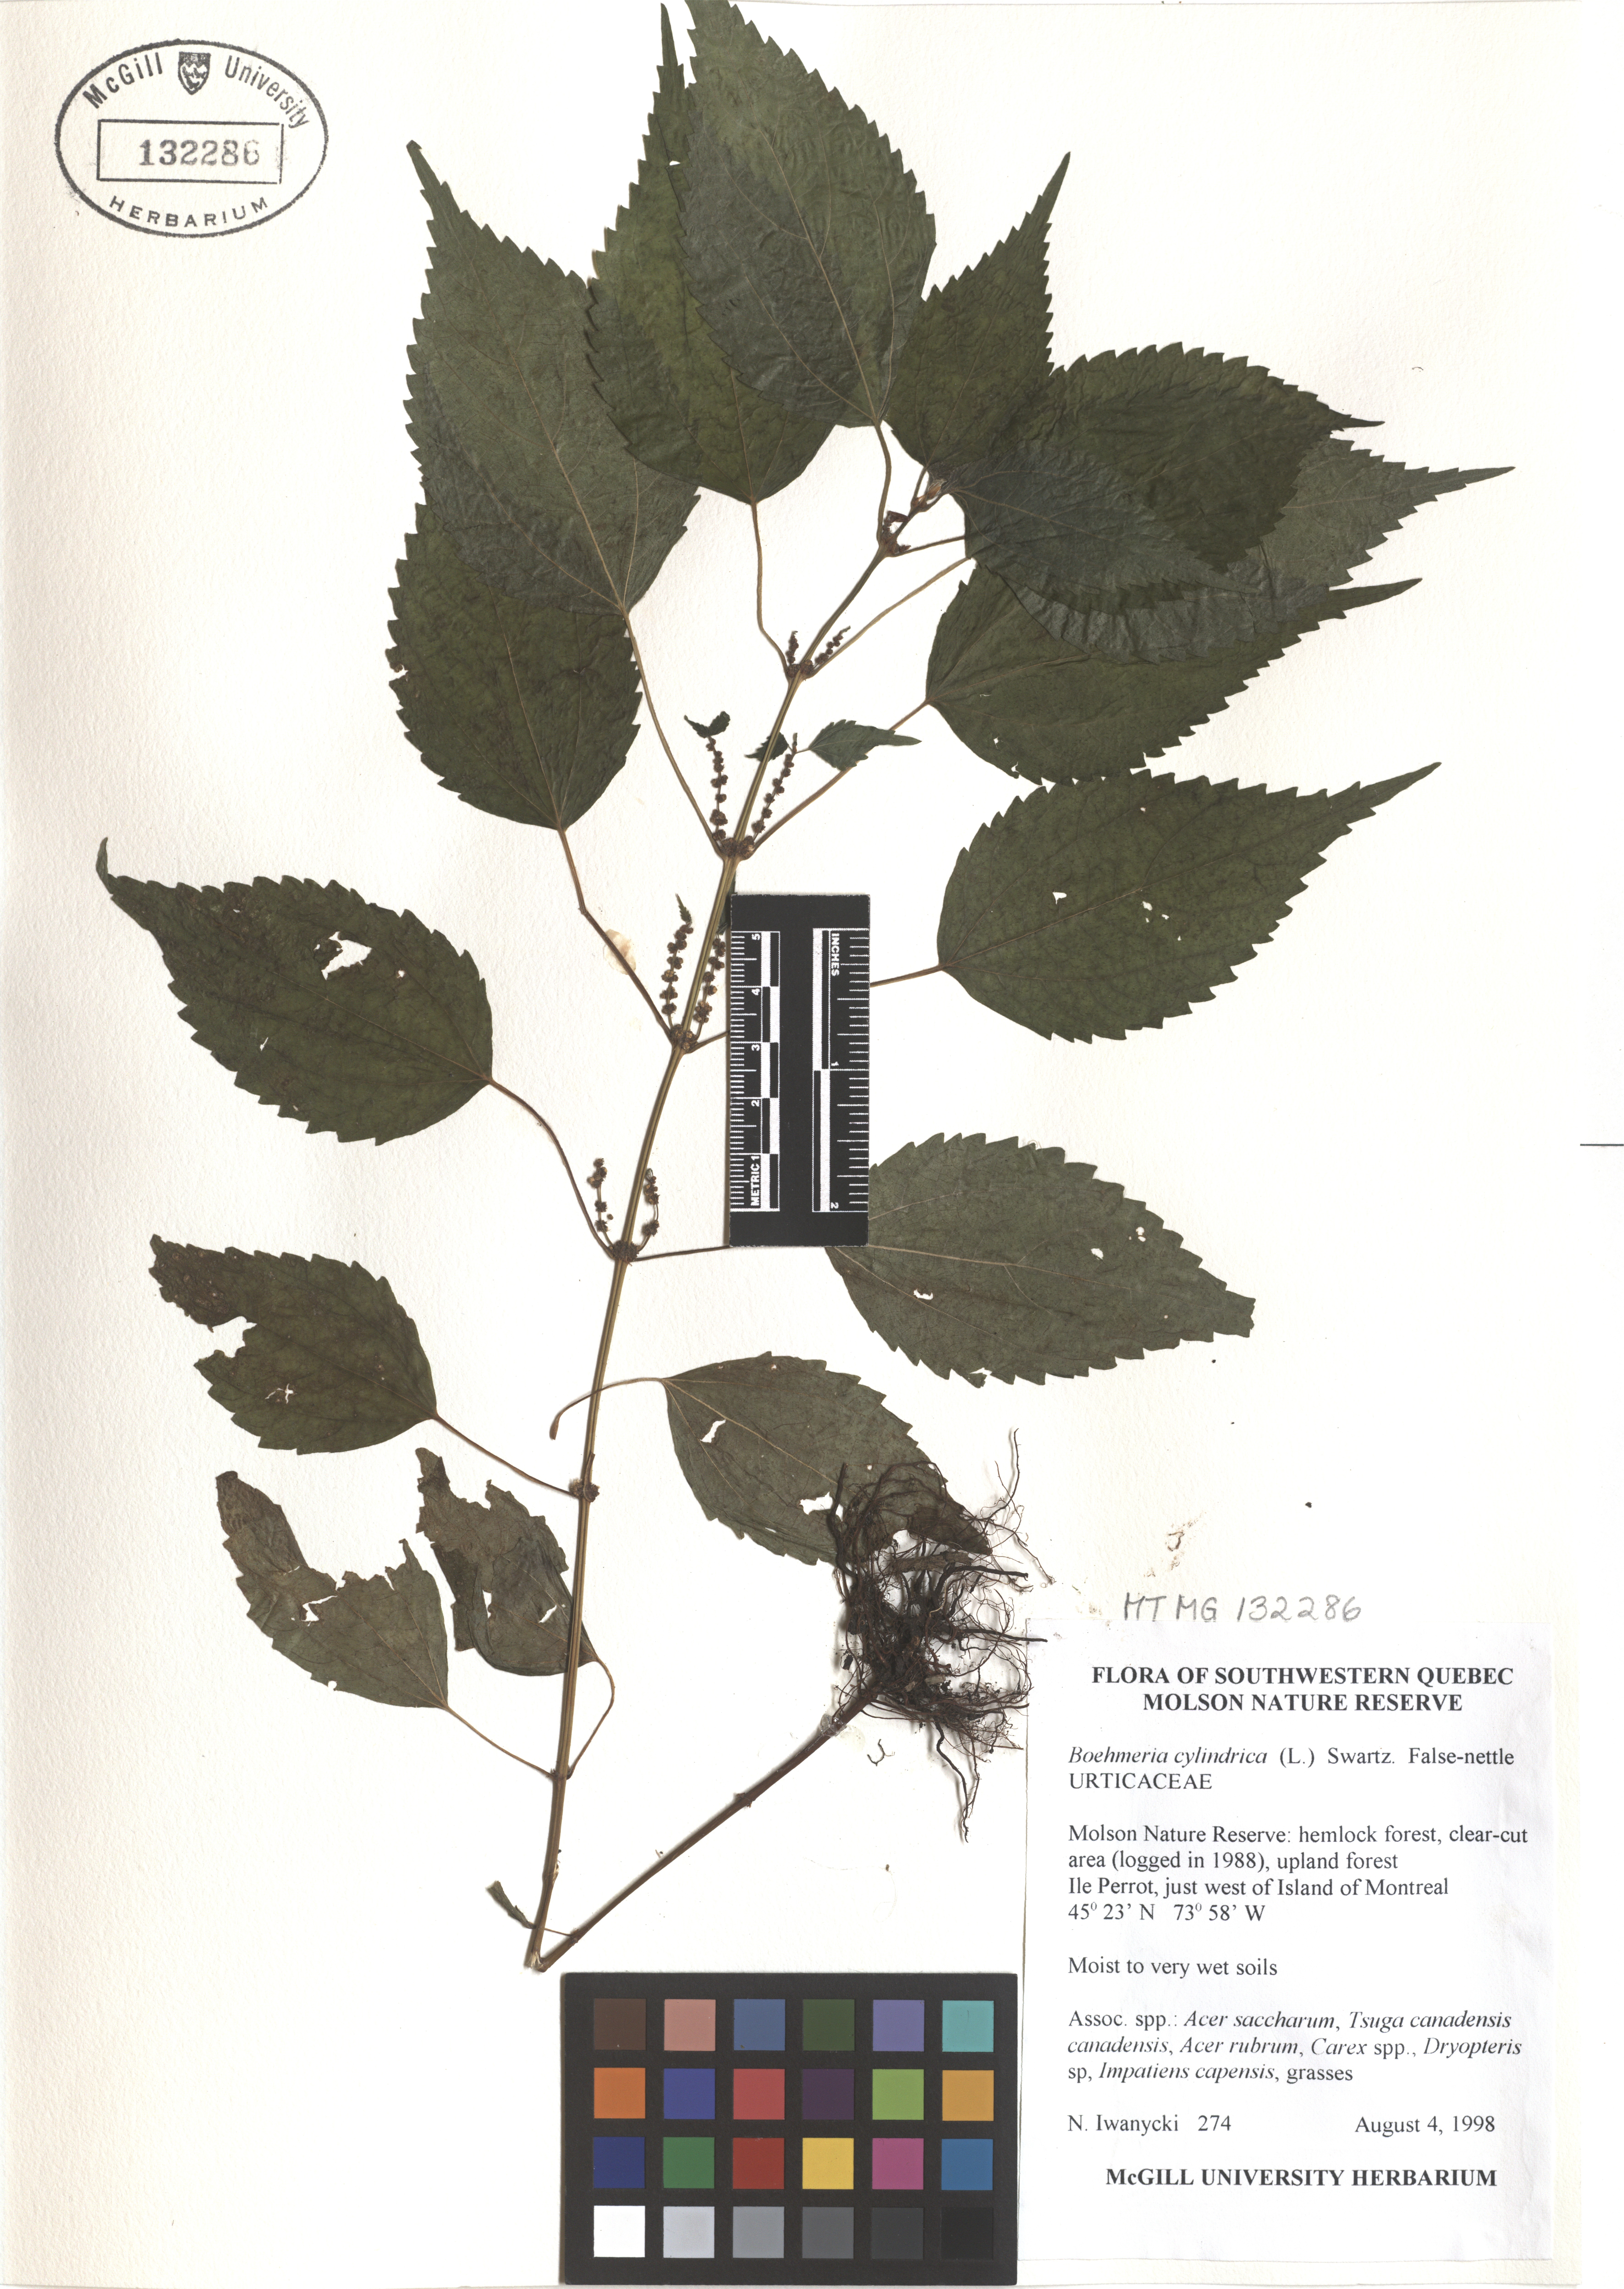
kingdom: Plantae
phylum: Tracheophyta
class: Magnoliopsida
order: Rosales
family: Urticaceae
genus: Boehmeria
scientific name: Boehmeria cylindrica
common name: Bog-hemp
